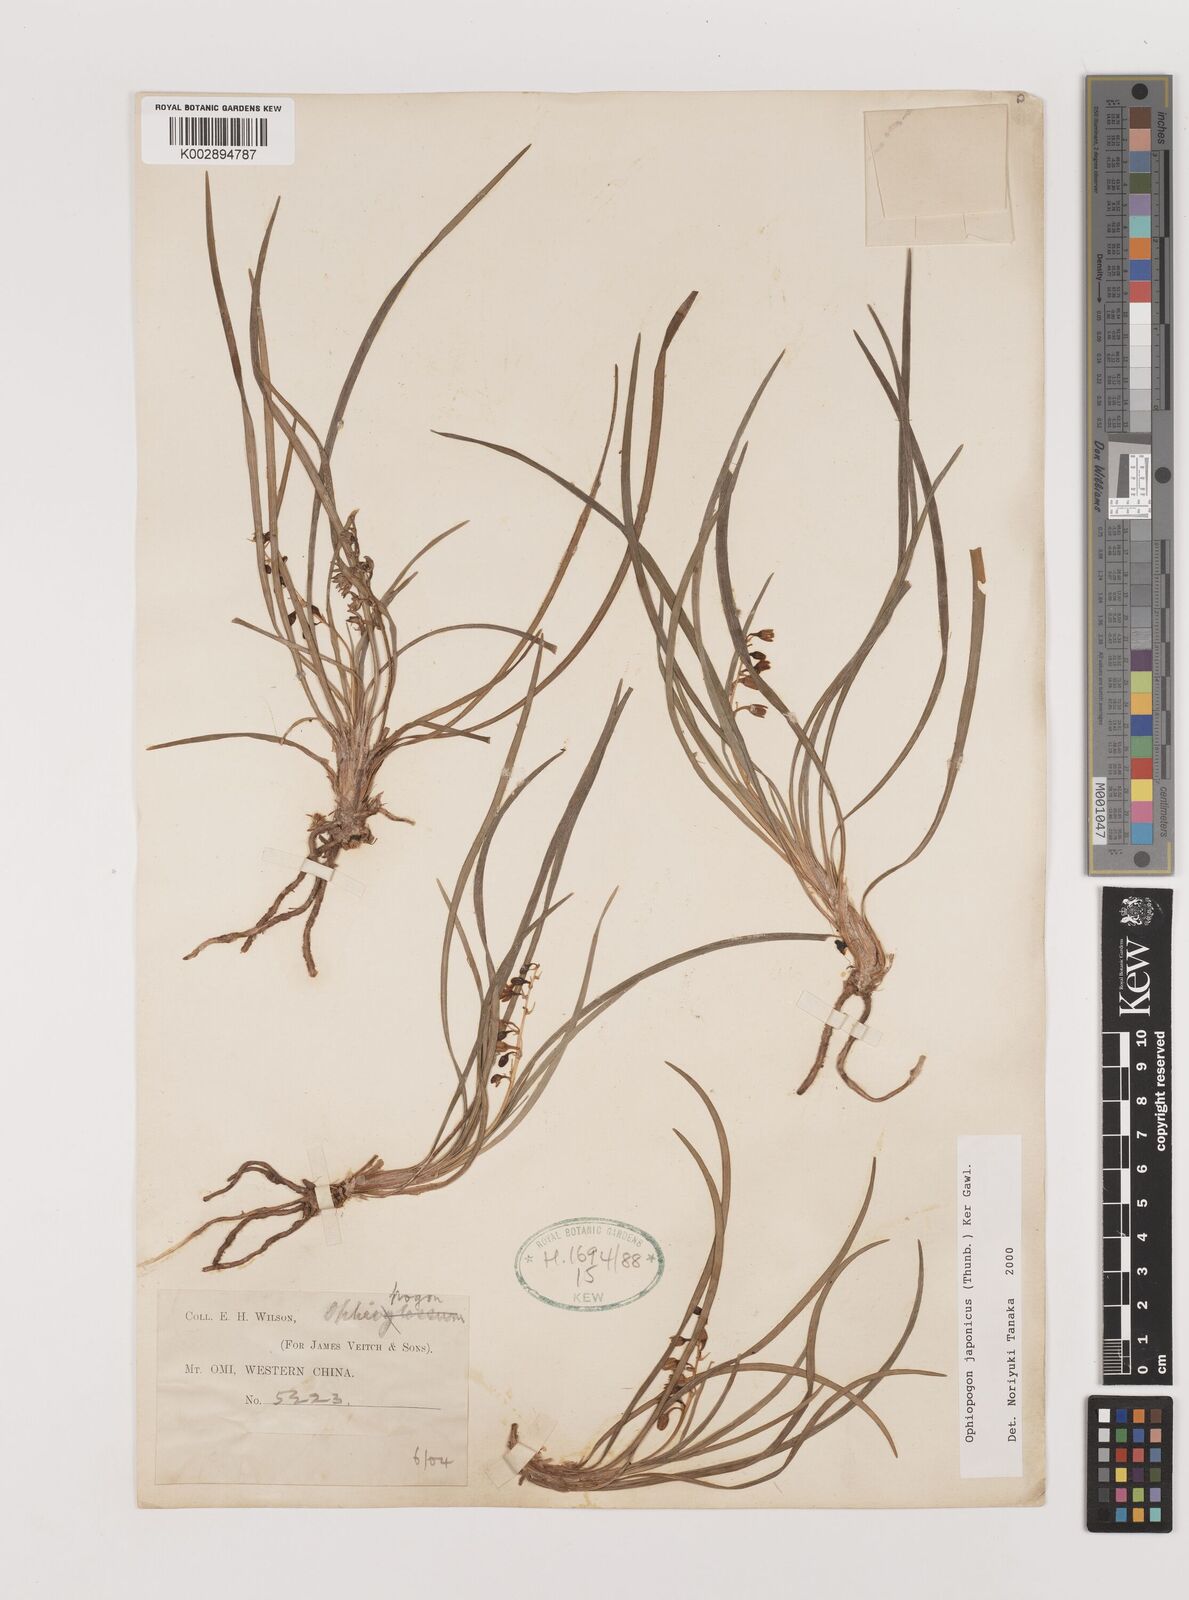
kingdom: Plantae
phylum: Tracheophyta
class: Liliopsida
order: Asparagales
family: Asparagaceae
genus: Ophiopogon
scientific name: Ophiopogon japonicus
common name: Dwarf lilyturf
